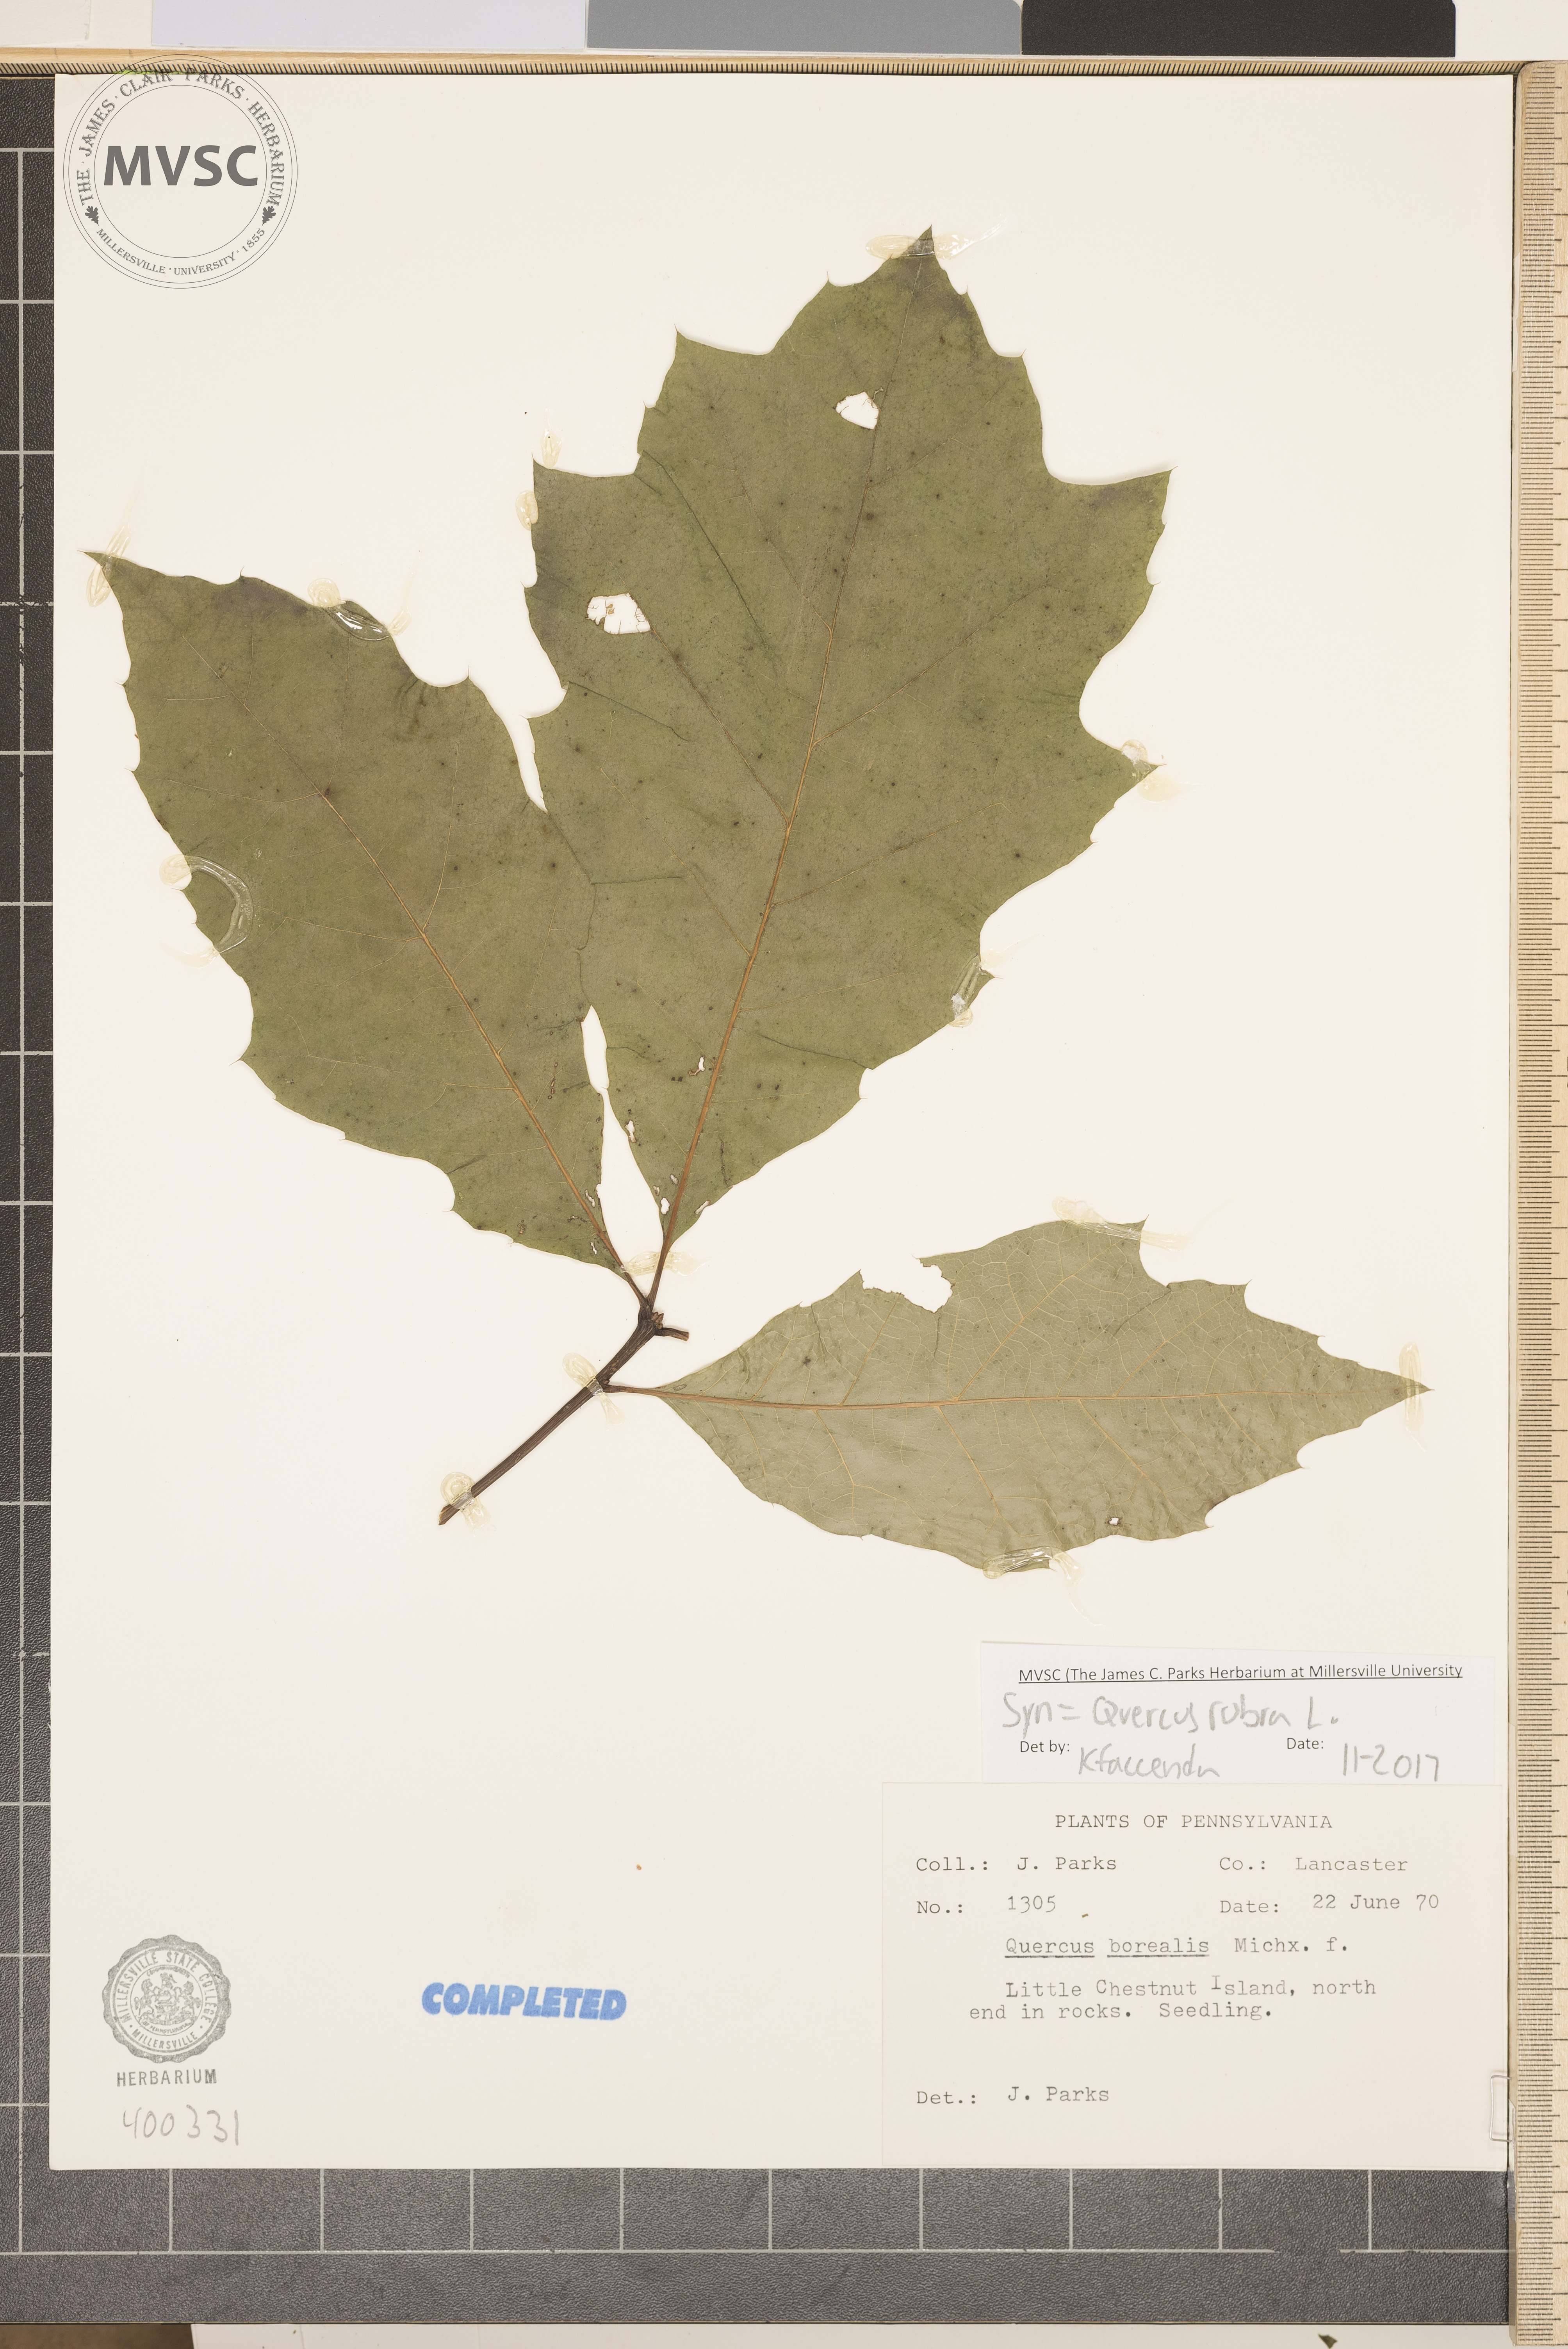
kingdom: Plantae
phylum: Tracheophyta
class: Magnoliopsida
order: Fagales
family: Fagaceae
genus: Quercus
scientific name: Quercus rubra
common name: red oak
